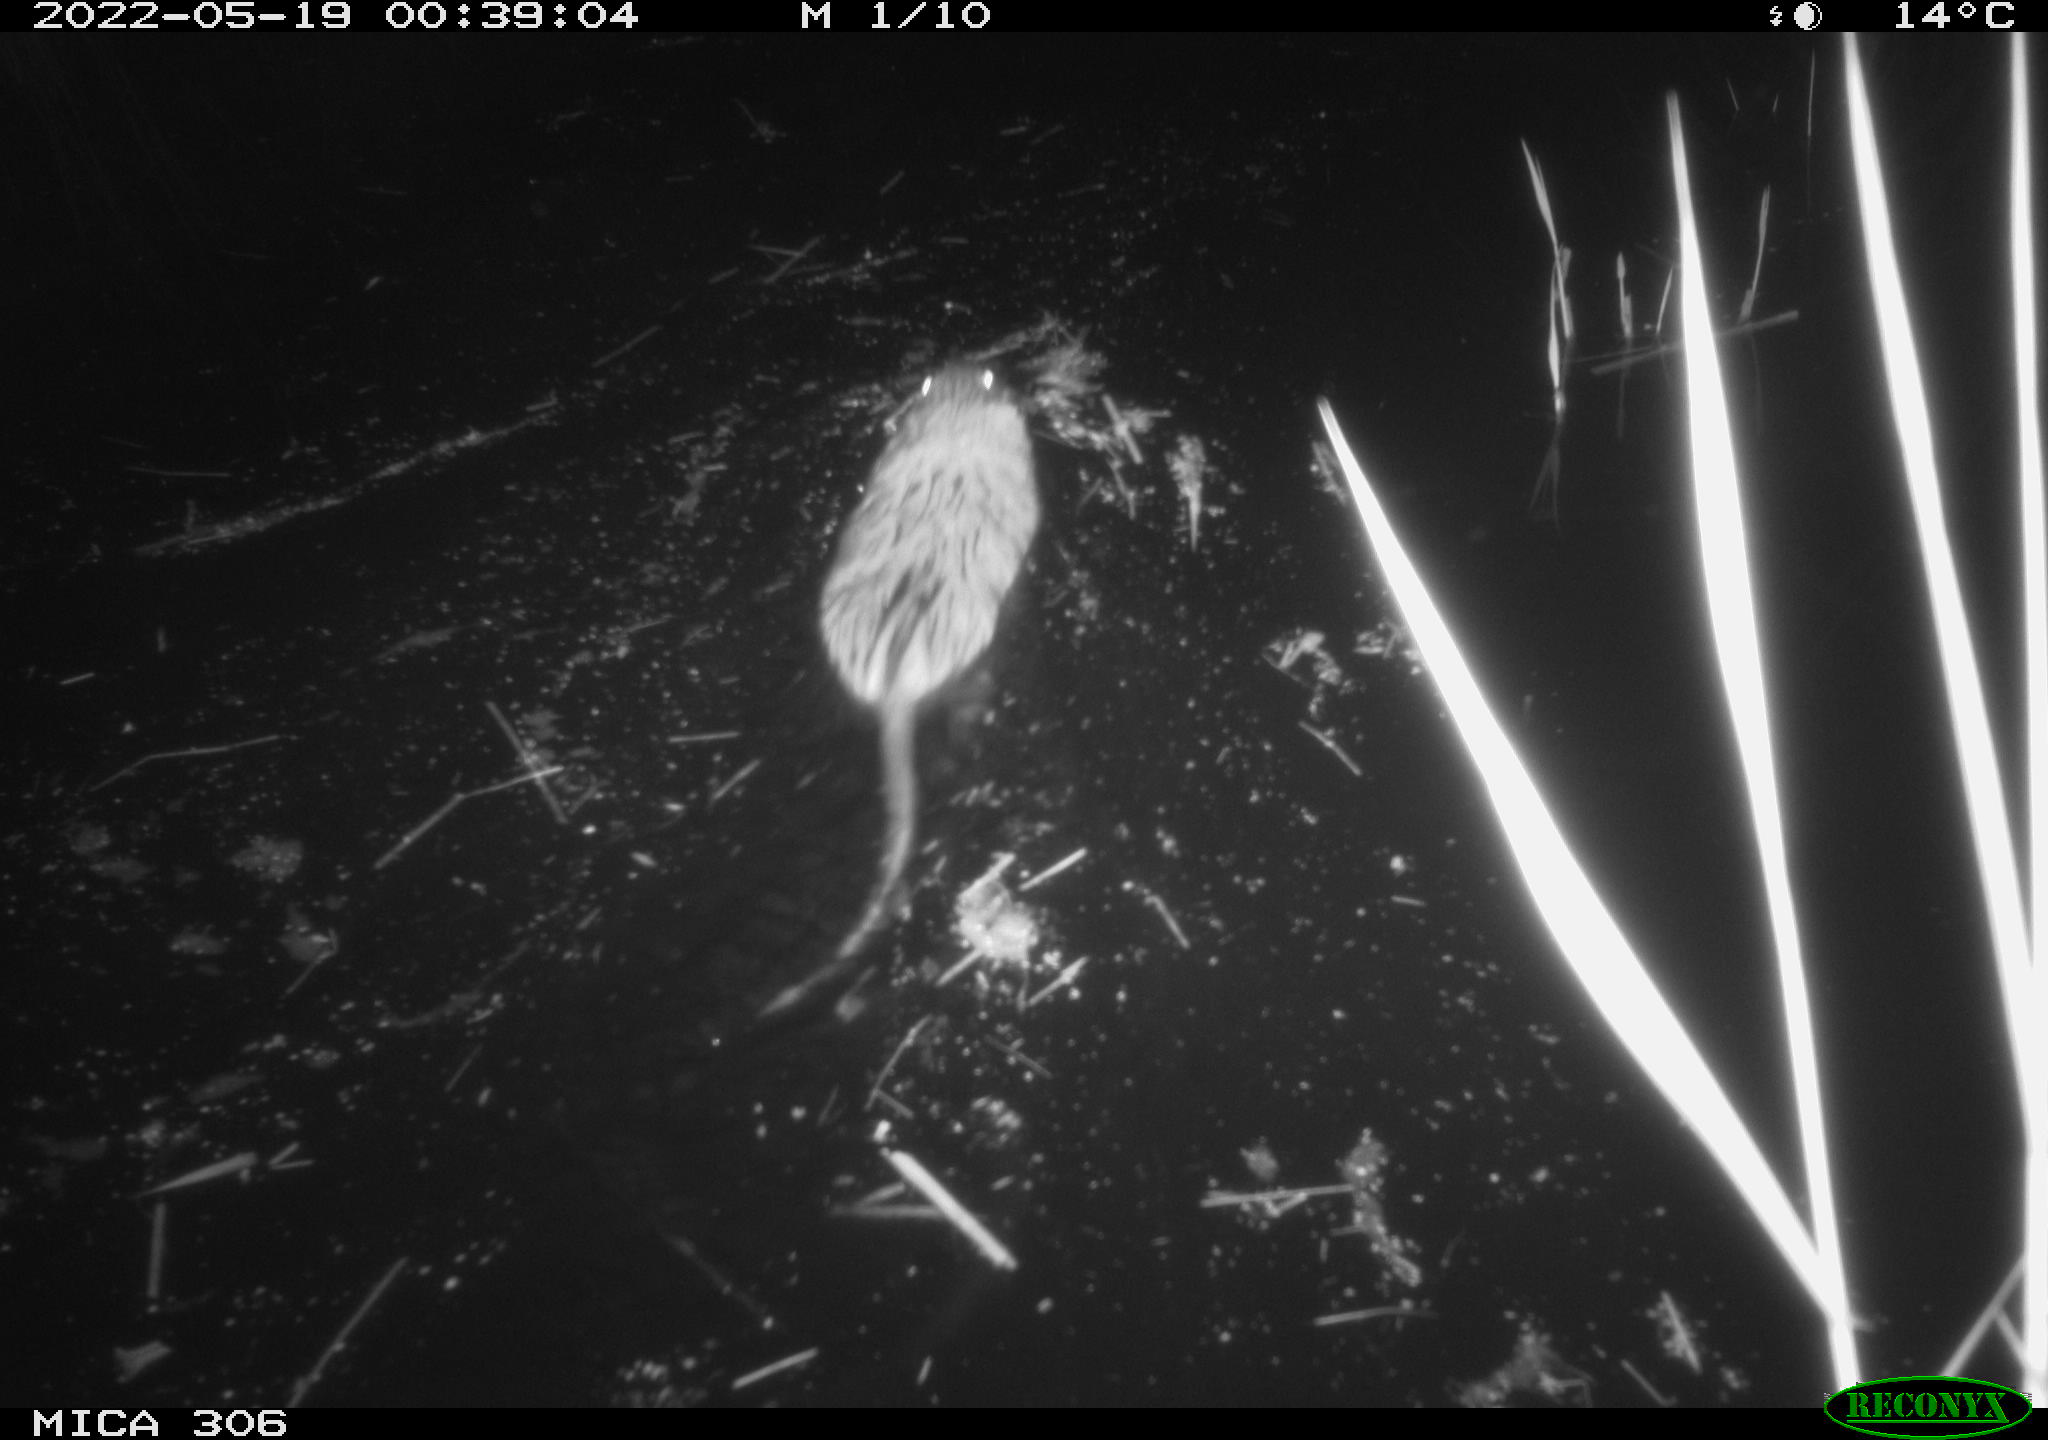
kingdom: Animalia
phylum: Chordata
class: Mammalia
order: Rodentia
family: Cricetidae
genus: Ondatra
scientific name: Ondatra zibethicus
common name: Muskrat
